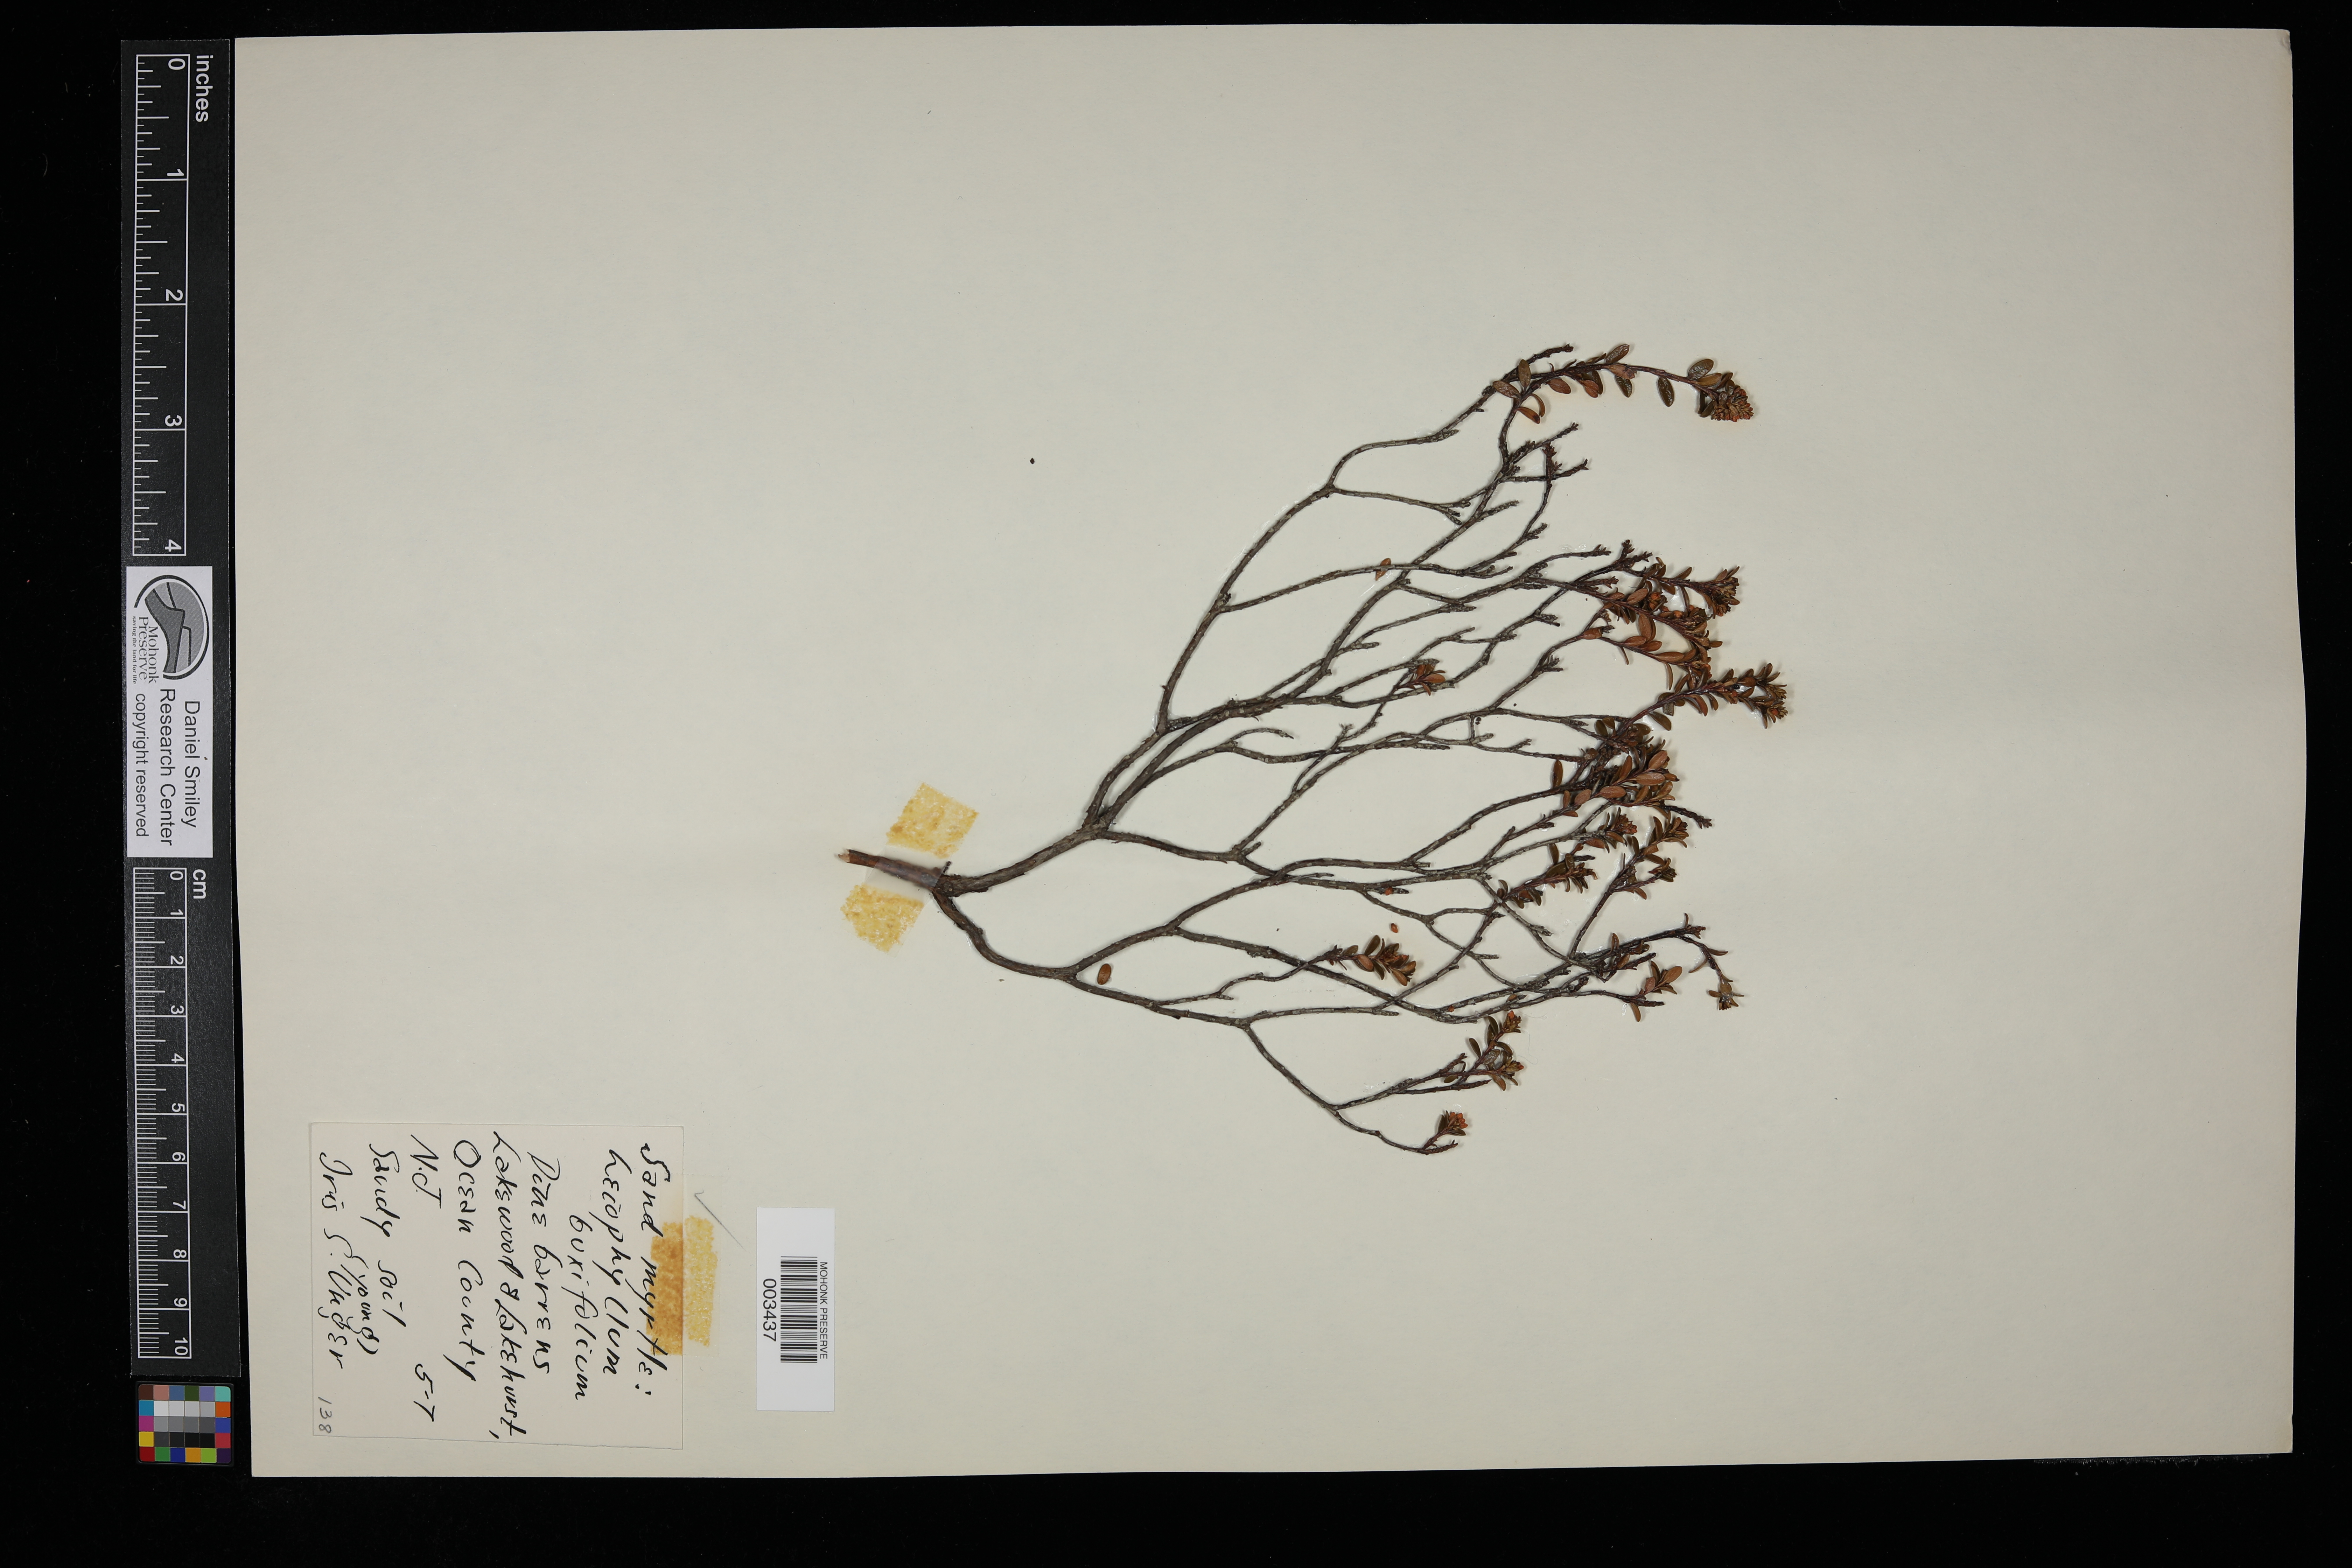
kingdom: Plantae
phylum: Tracheophyta
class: Magnoliopsida
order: Ericales
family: Ericaceae
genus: Kalmia
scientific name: Kalmia buxifolia
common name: Sandmyrtle
